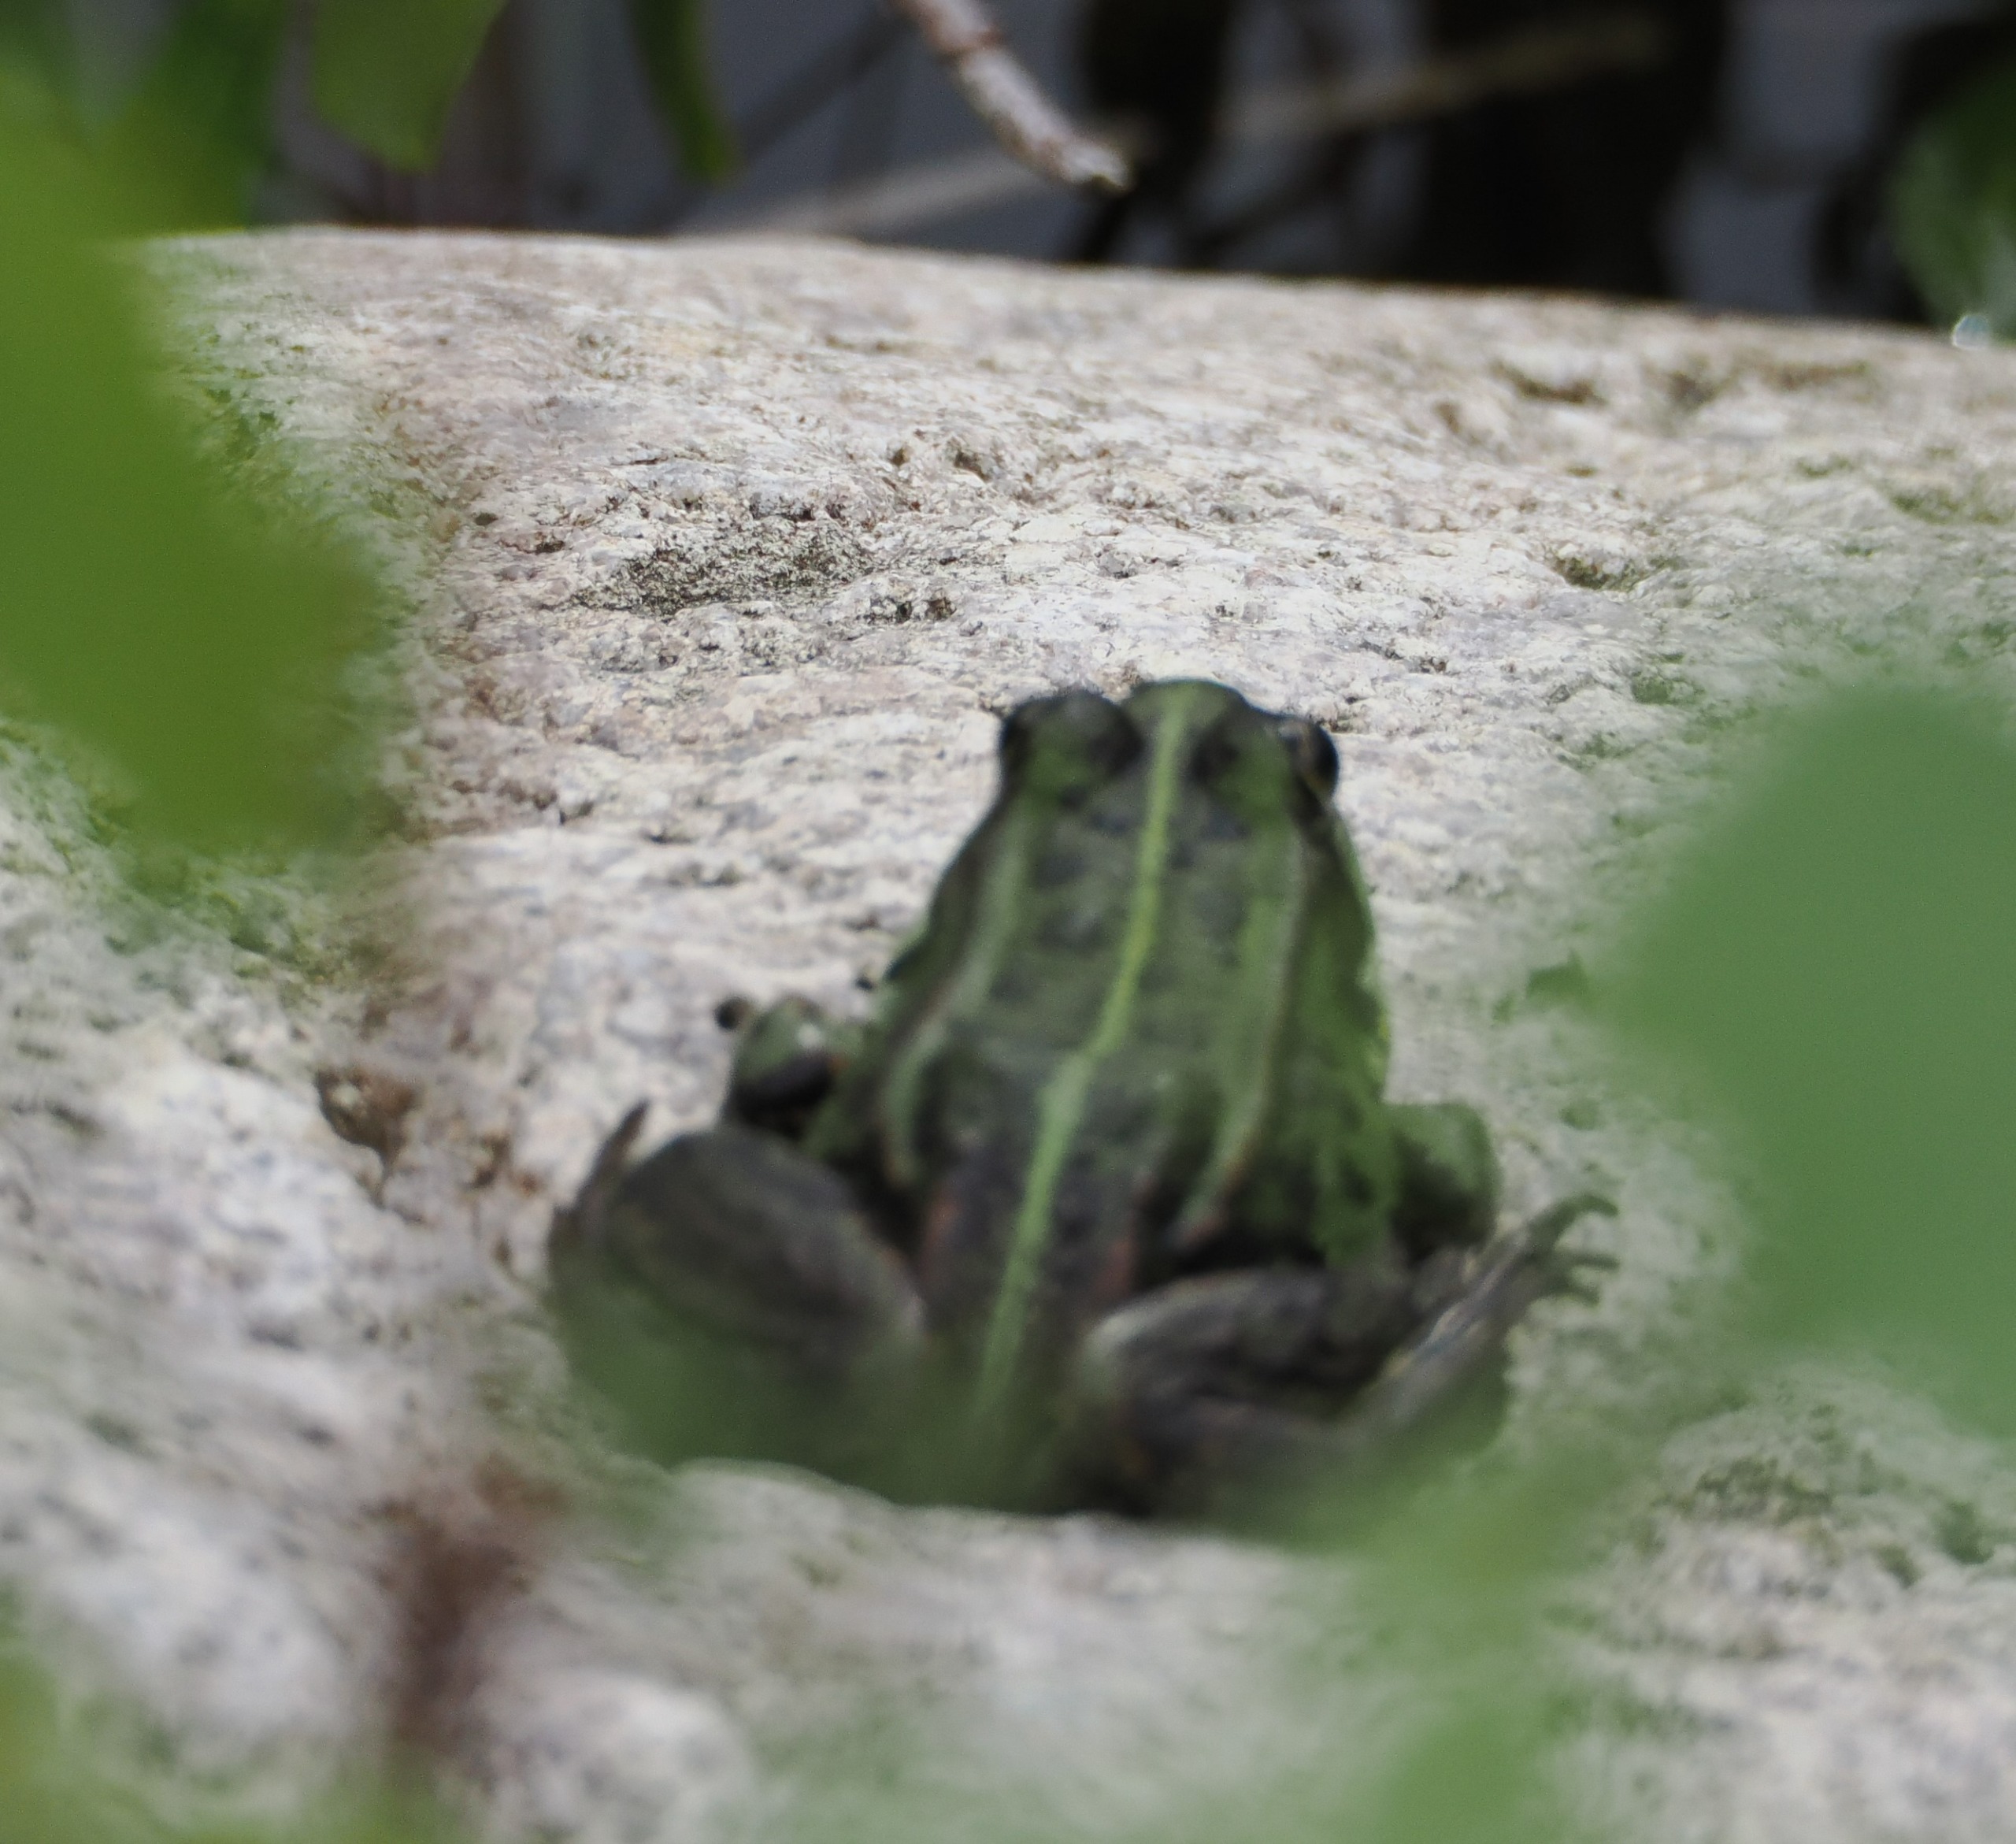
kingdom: Animalia
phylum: Chordata
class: Amphibia
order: Anura
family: Ranidae
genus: Pelophylax
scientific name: Pelophylax lessonae
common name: Grøn frø
